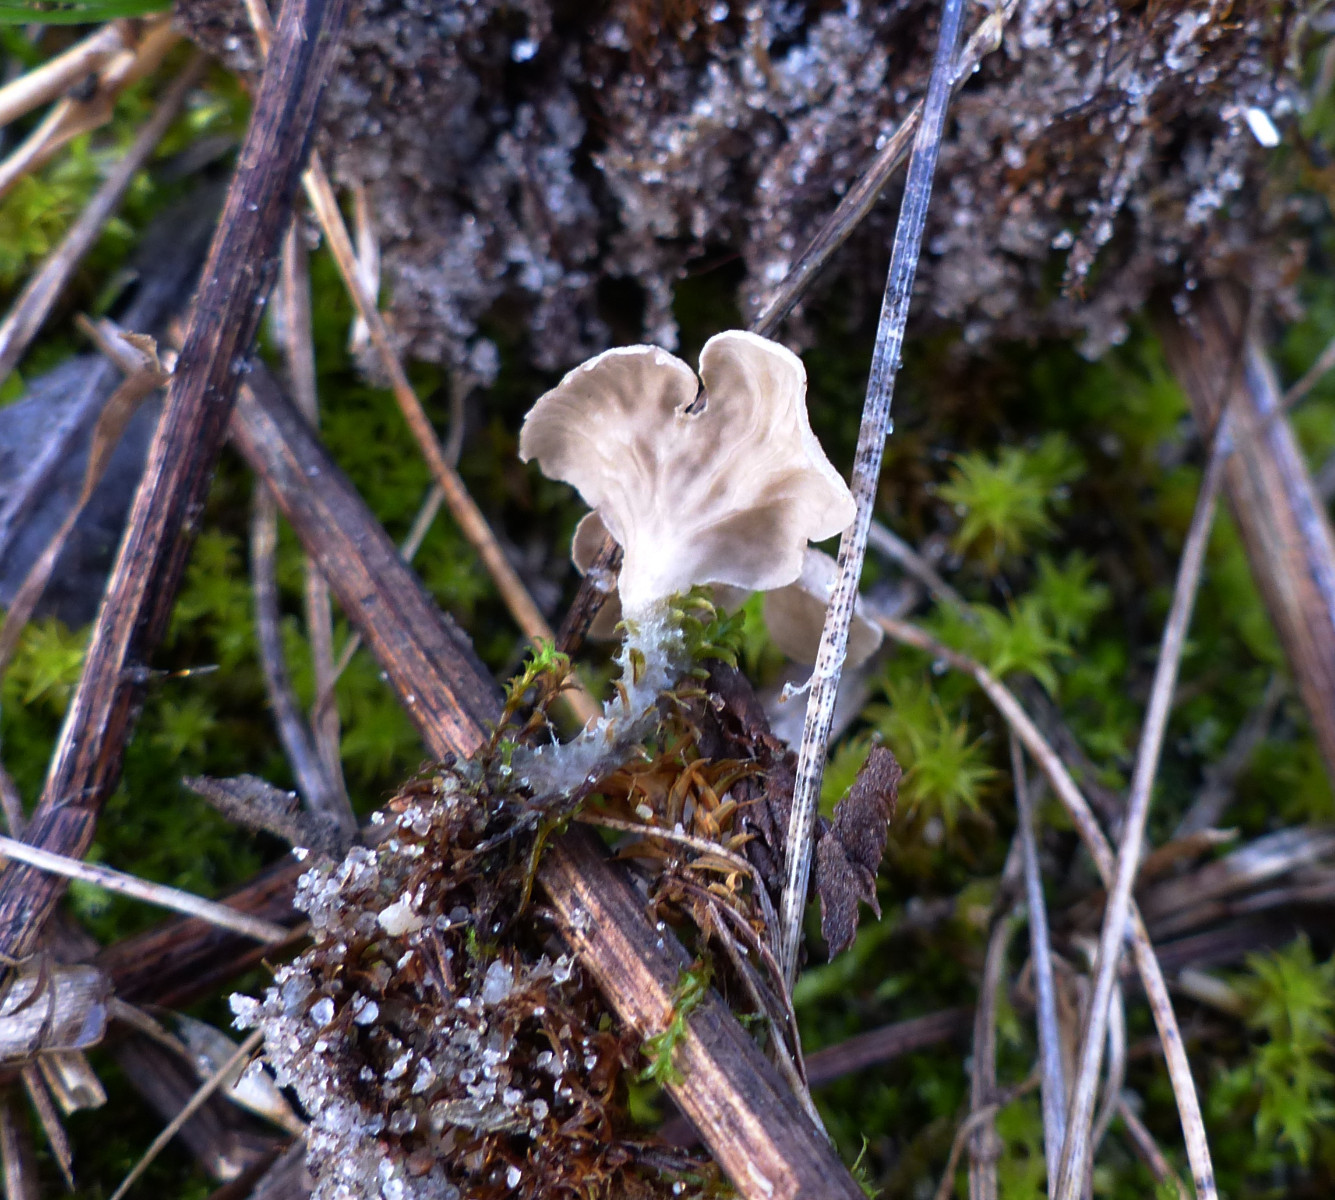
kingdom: Fungi
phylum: Basidiomycota
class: Agaricomycetes
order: Agaricales
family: Hygrophoraceae
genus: Arrhenia
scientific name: Arrhenia spathulata
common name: skæv fontænehat
